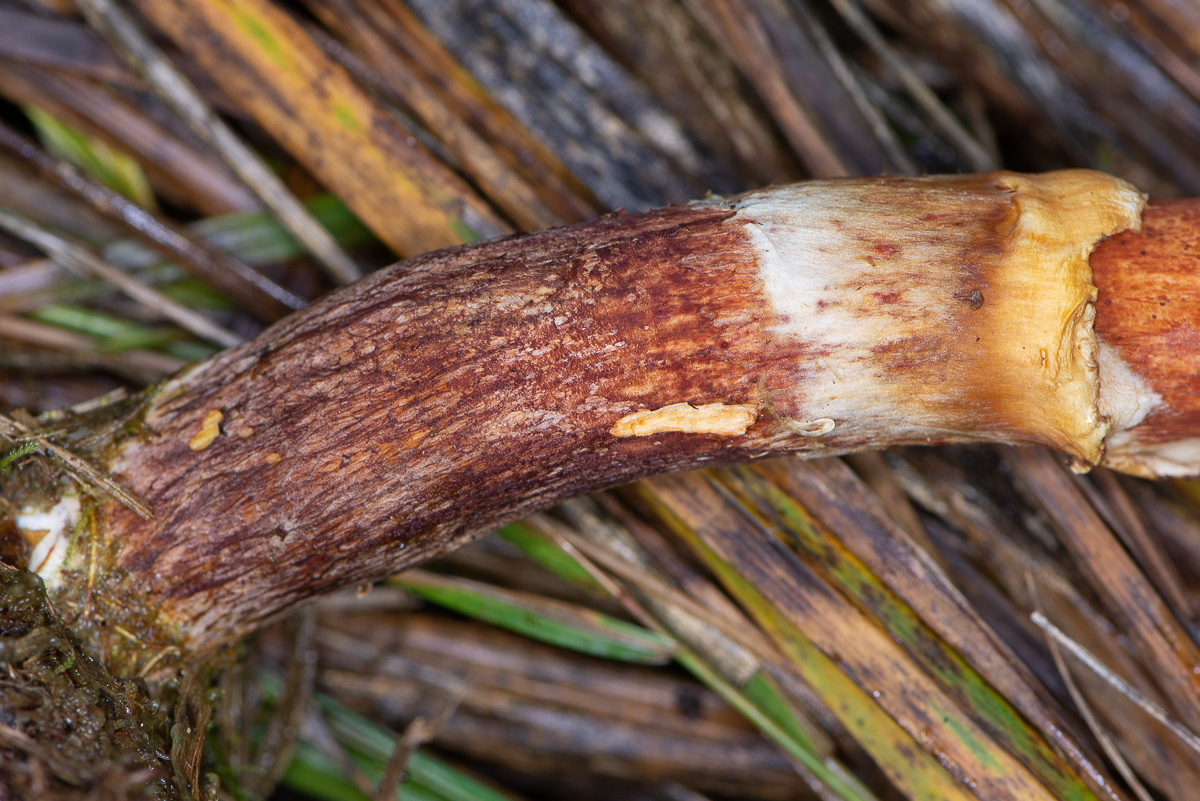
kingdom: Fungi
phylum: Basidiomycota
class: Agaricomycetes
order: Boletales
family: Suillaceae
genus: Suillus
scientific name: Suillus grevillei
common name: Larch bolete
